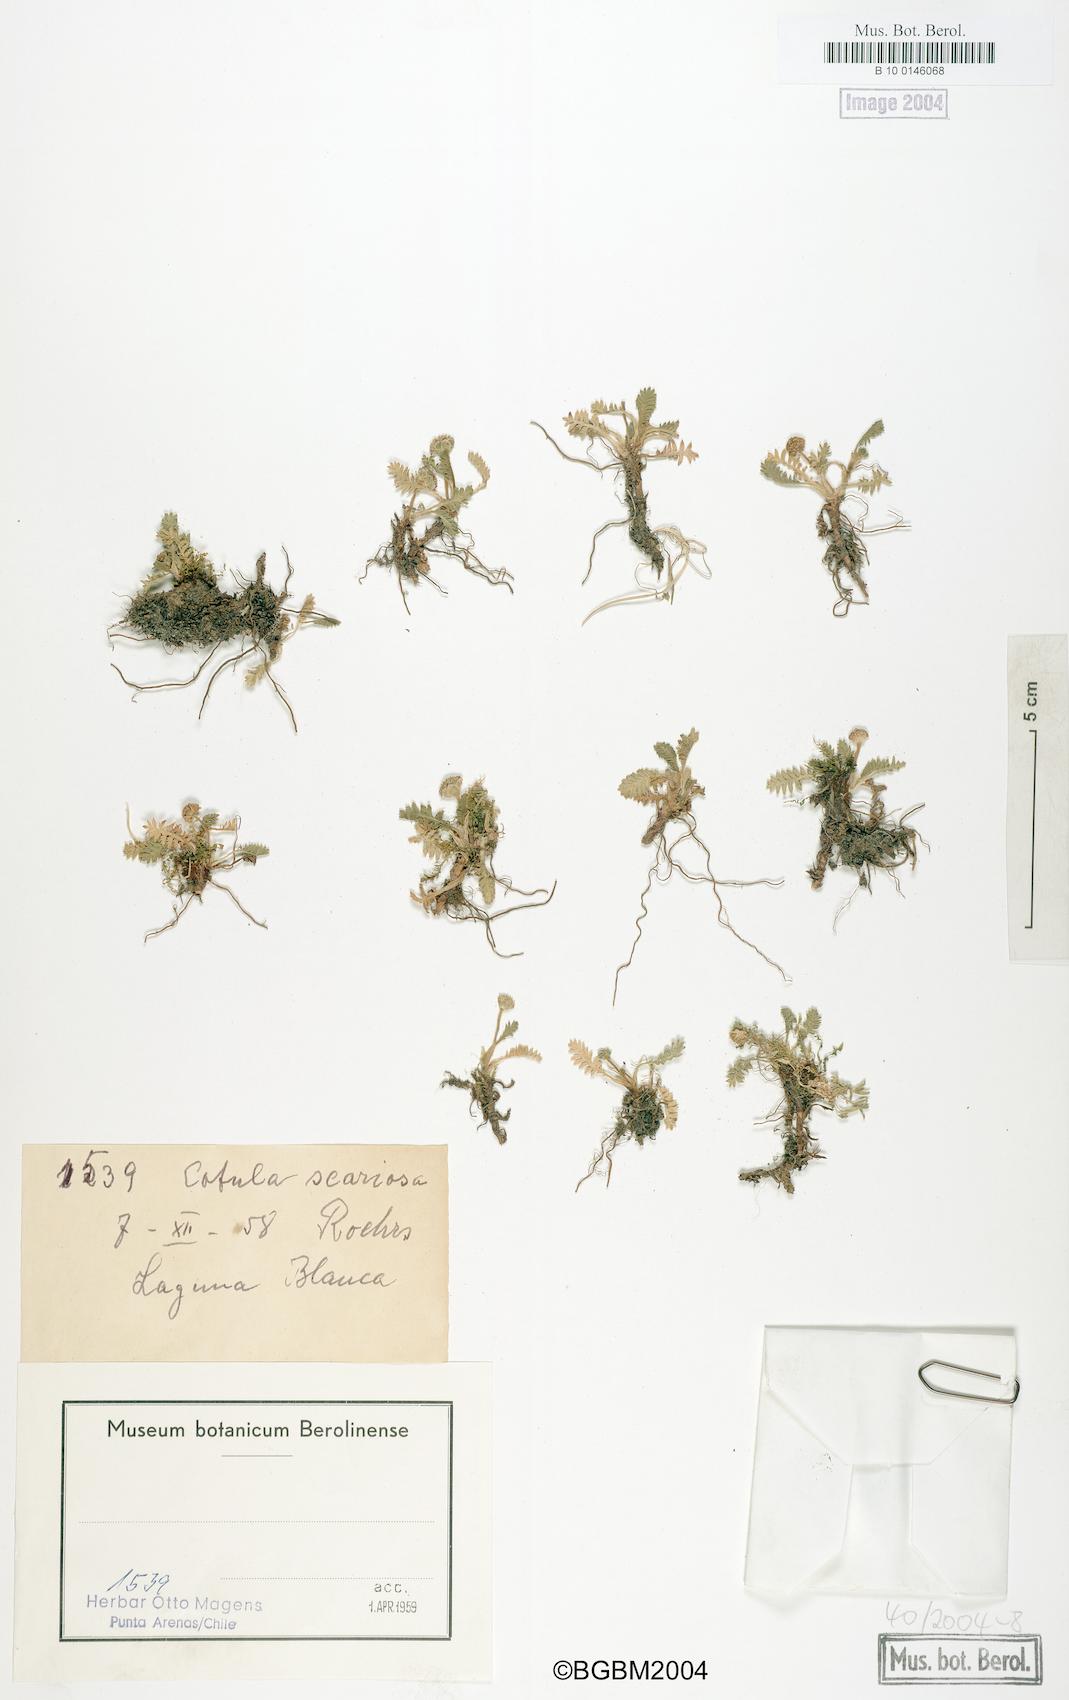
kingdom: Plantae
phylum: Tracheophyta
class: Magnoliopsida
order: Asterales
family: Asteraceae
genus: Leptinella
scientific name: Leptinella scariosa
